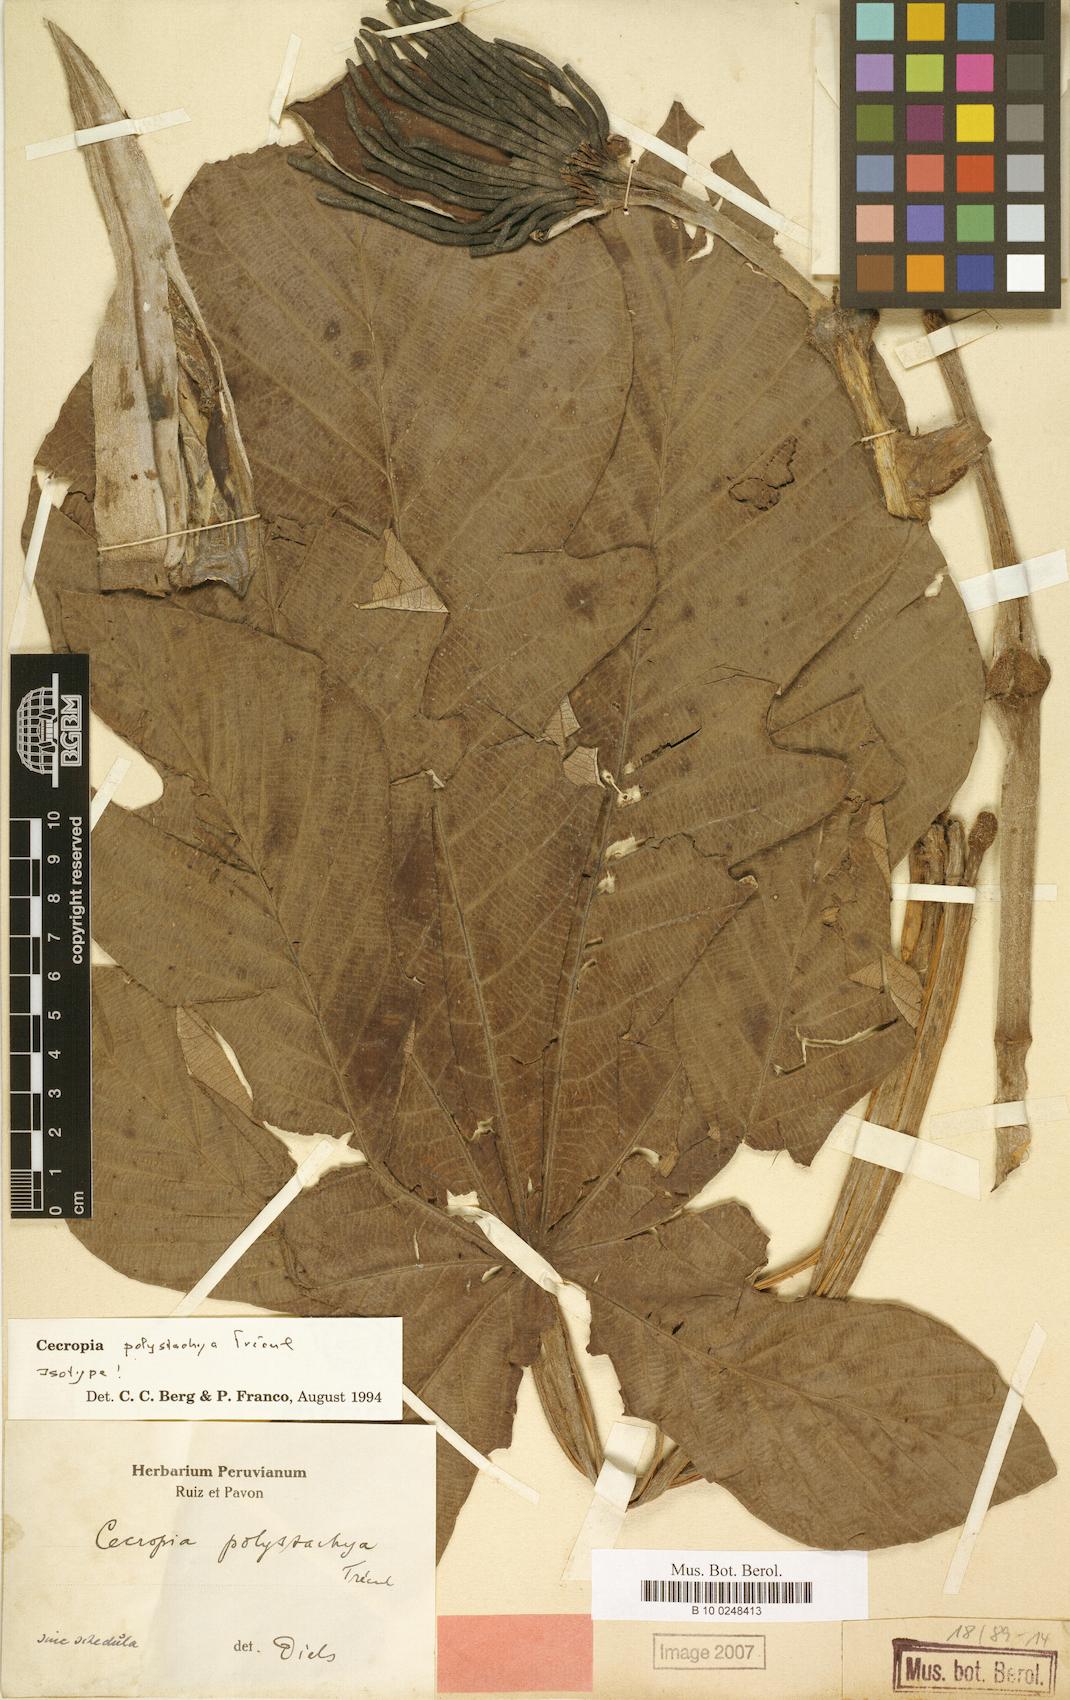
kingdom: Plantae
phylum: Tracheophyta
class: Magnoliopsida
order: Rosales
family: Urticaceae
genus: Cecropia
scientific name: Cecropia polystachya
